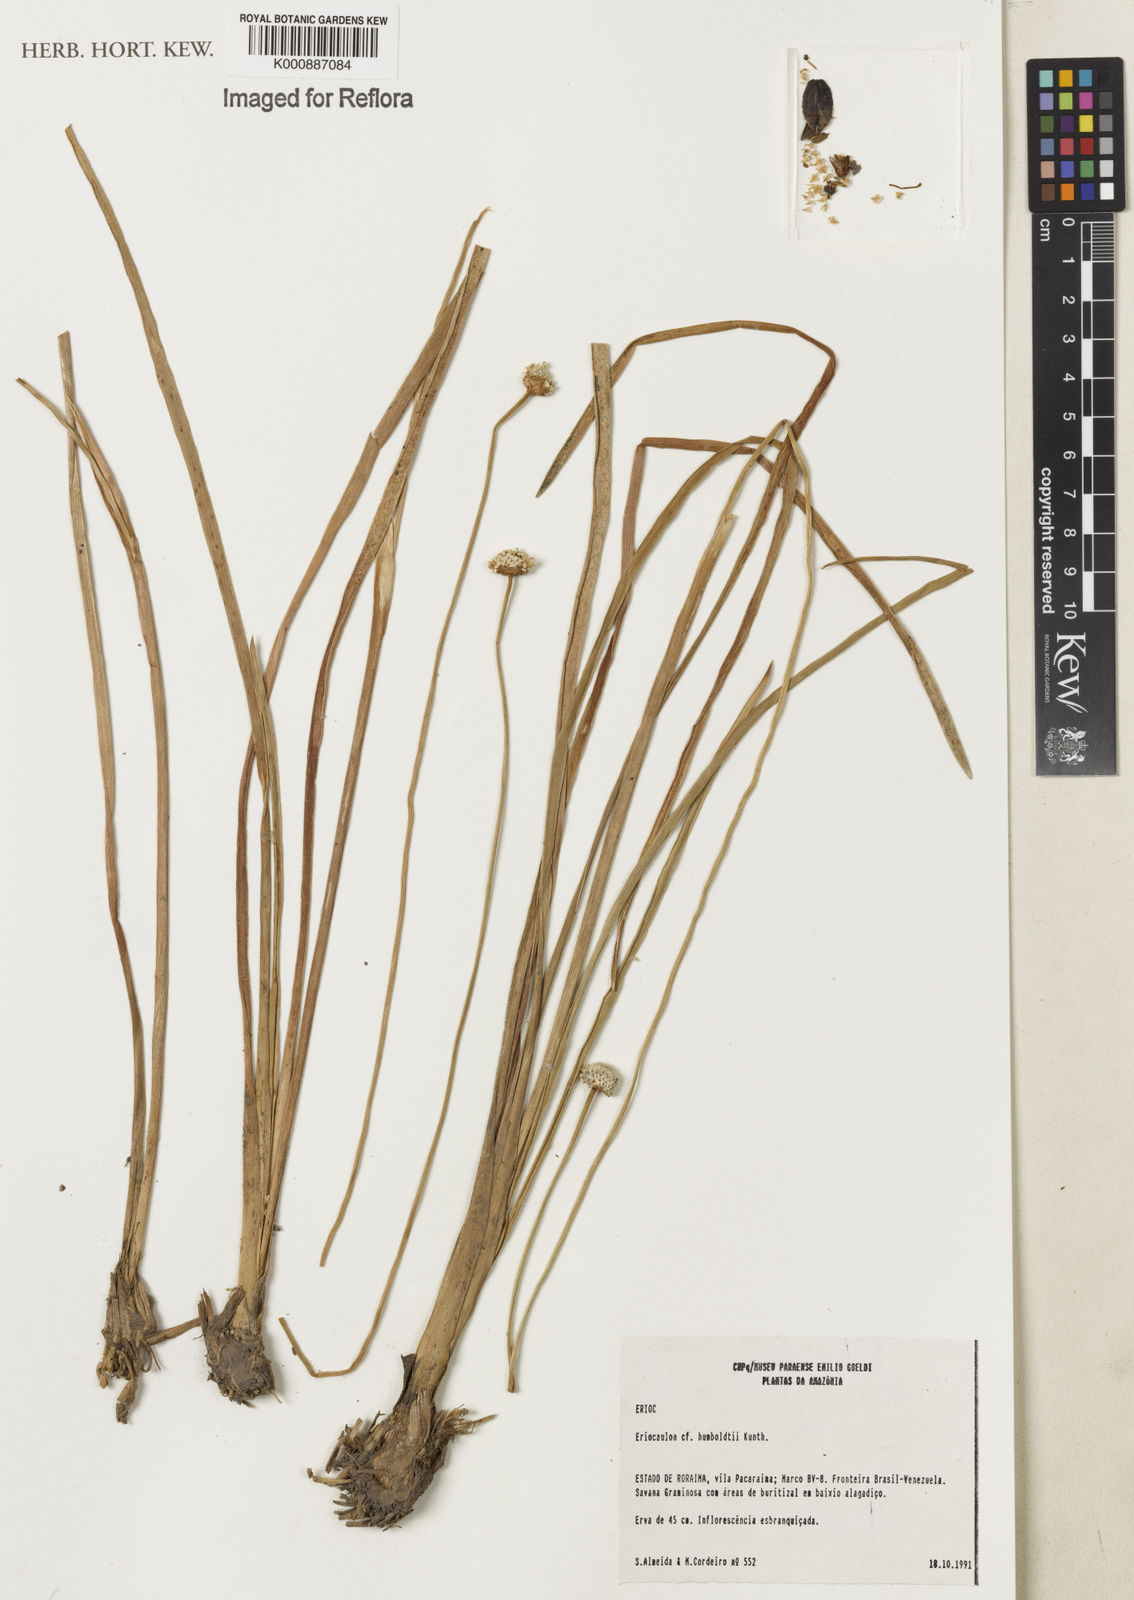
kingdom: Plantae
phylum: Tracheophyta
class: Liliopsida
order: Poales
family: Eriocaulaceae
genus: Eriocaulon
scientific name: Eriocaulon humboldtii
